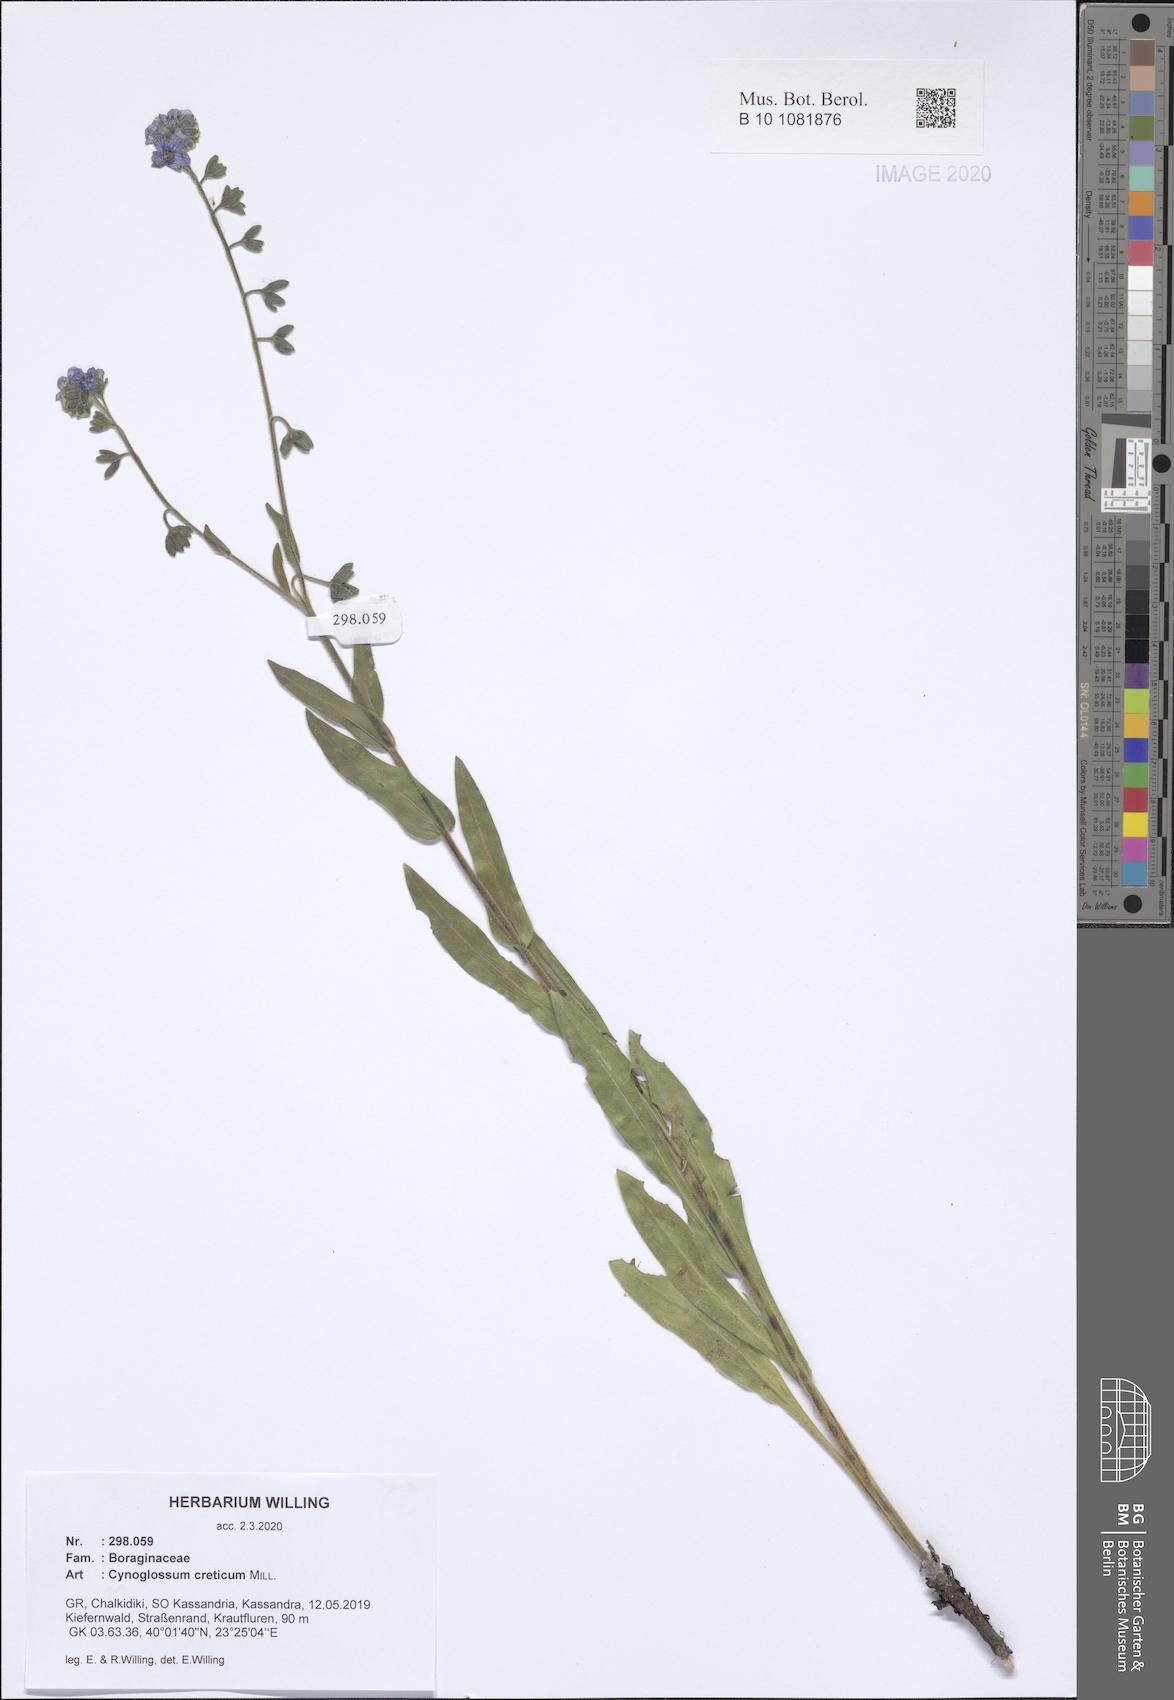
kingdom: Plantae
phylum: Tracheophyta
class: Magnoliopsida
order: Boraginales
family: Boraginaceae
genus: Cynoglossum
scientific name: Cynoglossum creticum
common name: Blue hound's tongue
